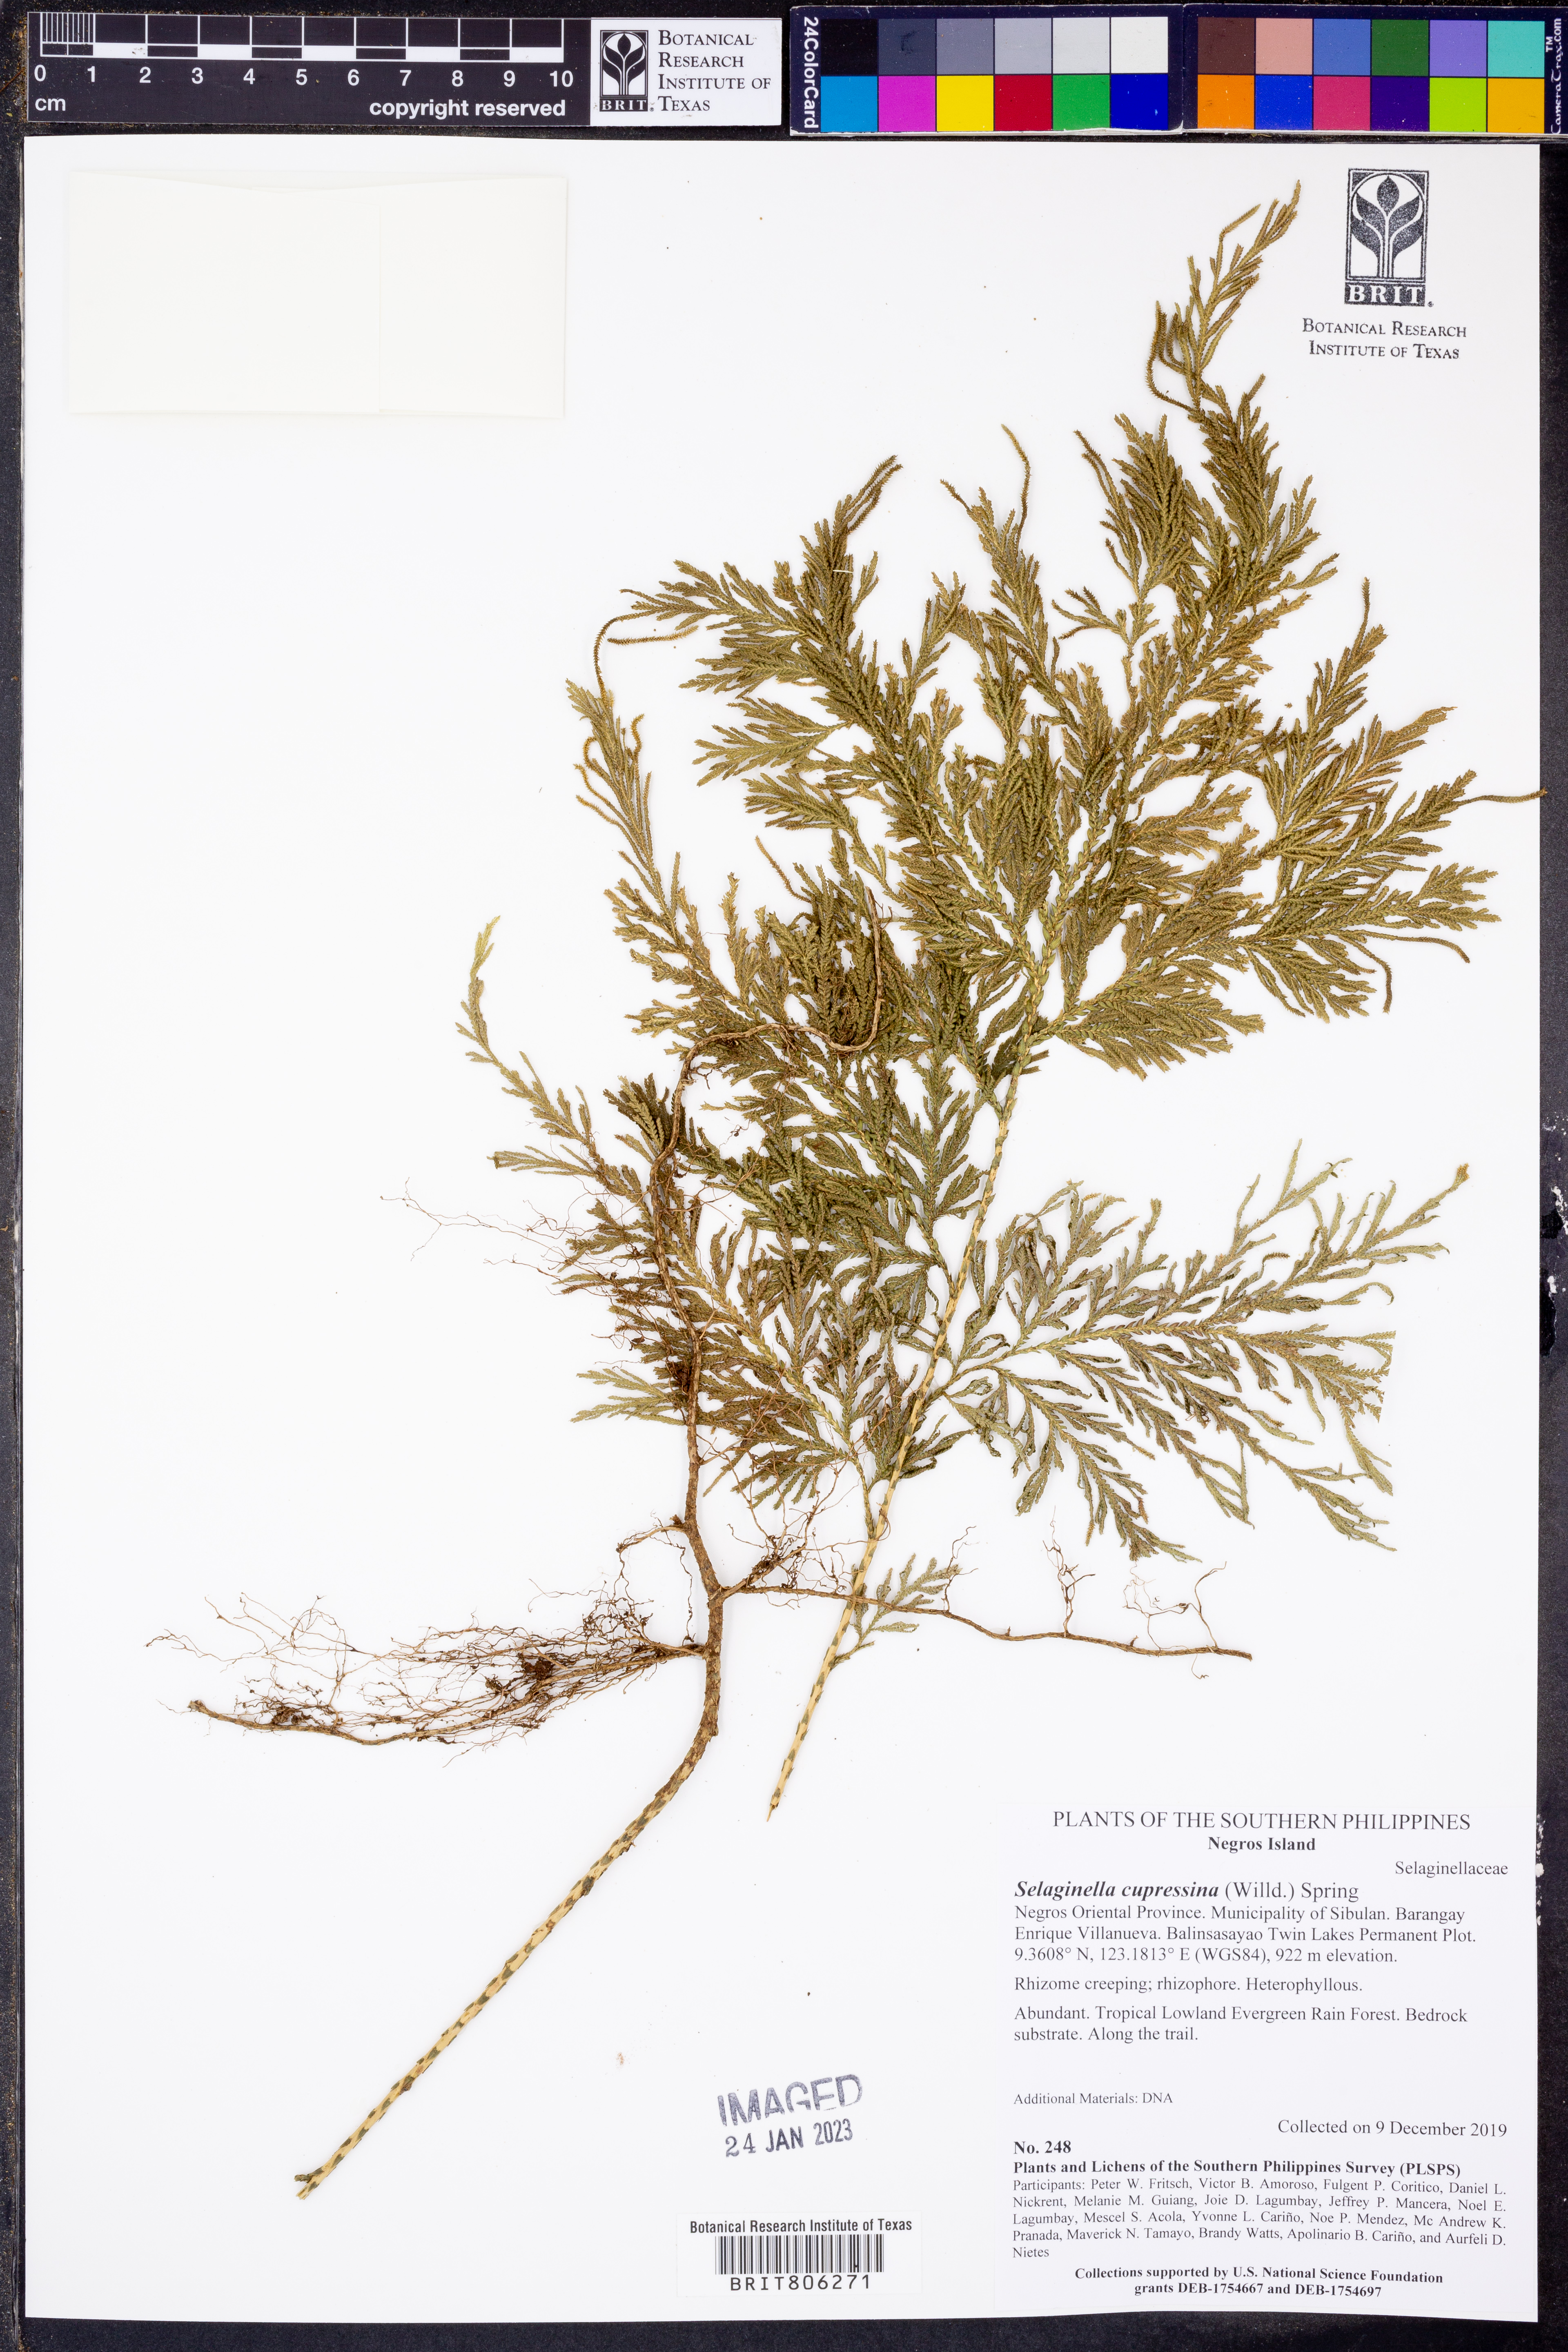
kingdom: Plantae
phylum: Tracheophyta
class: Lycopodiopsida
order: Selaginellales
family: Selaginellaceae
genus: Selaginella
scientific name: Selaginella cupressina
